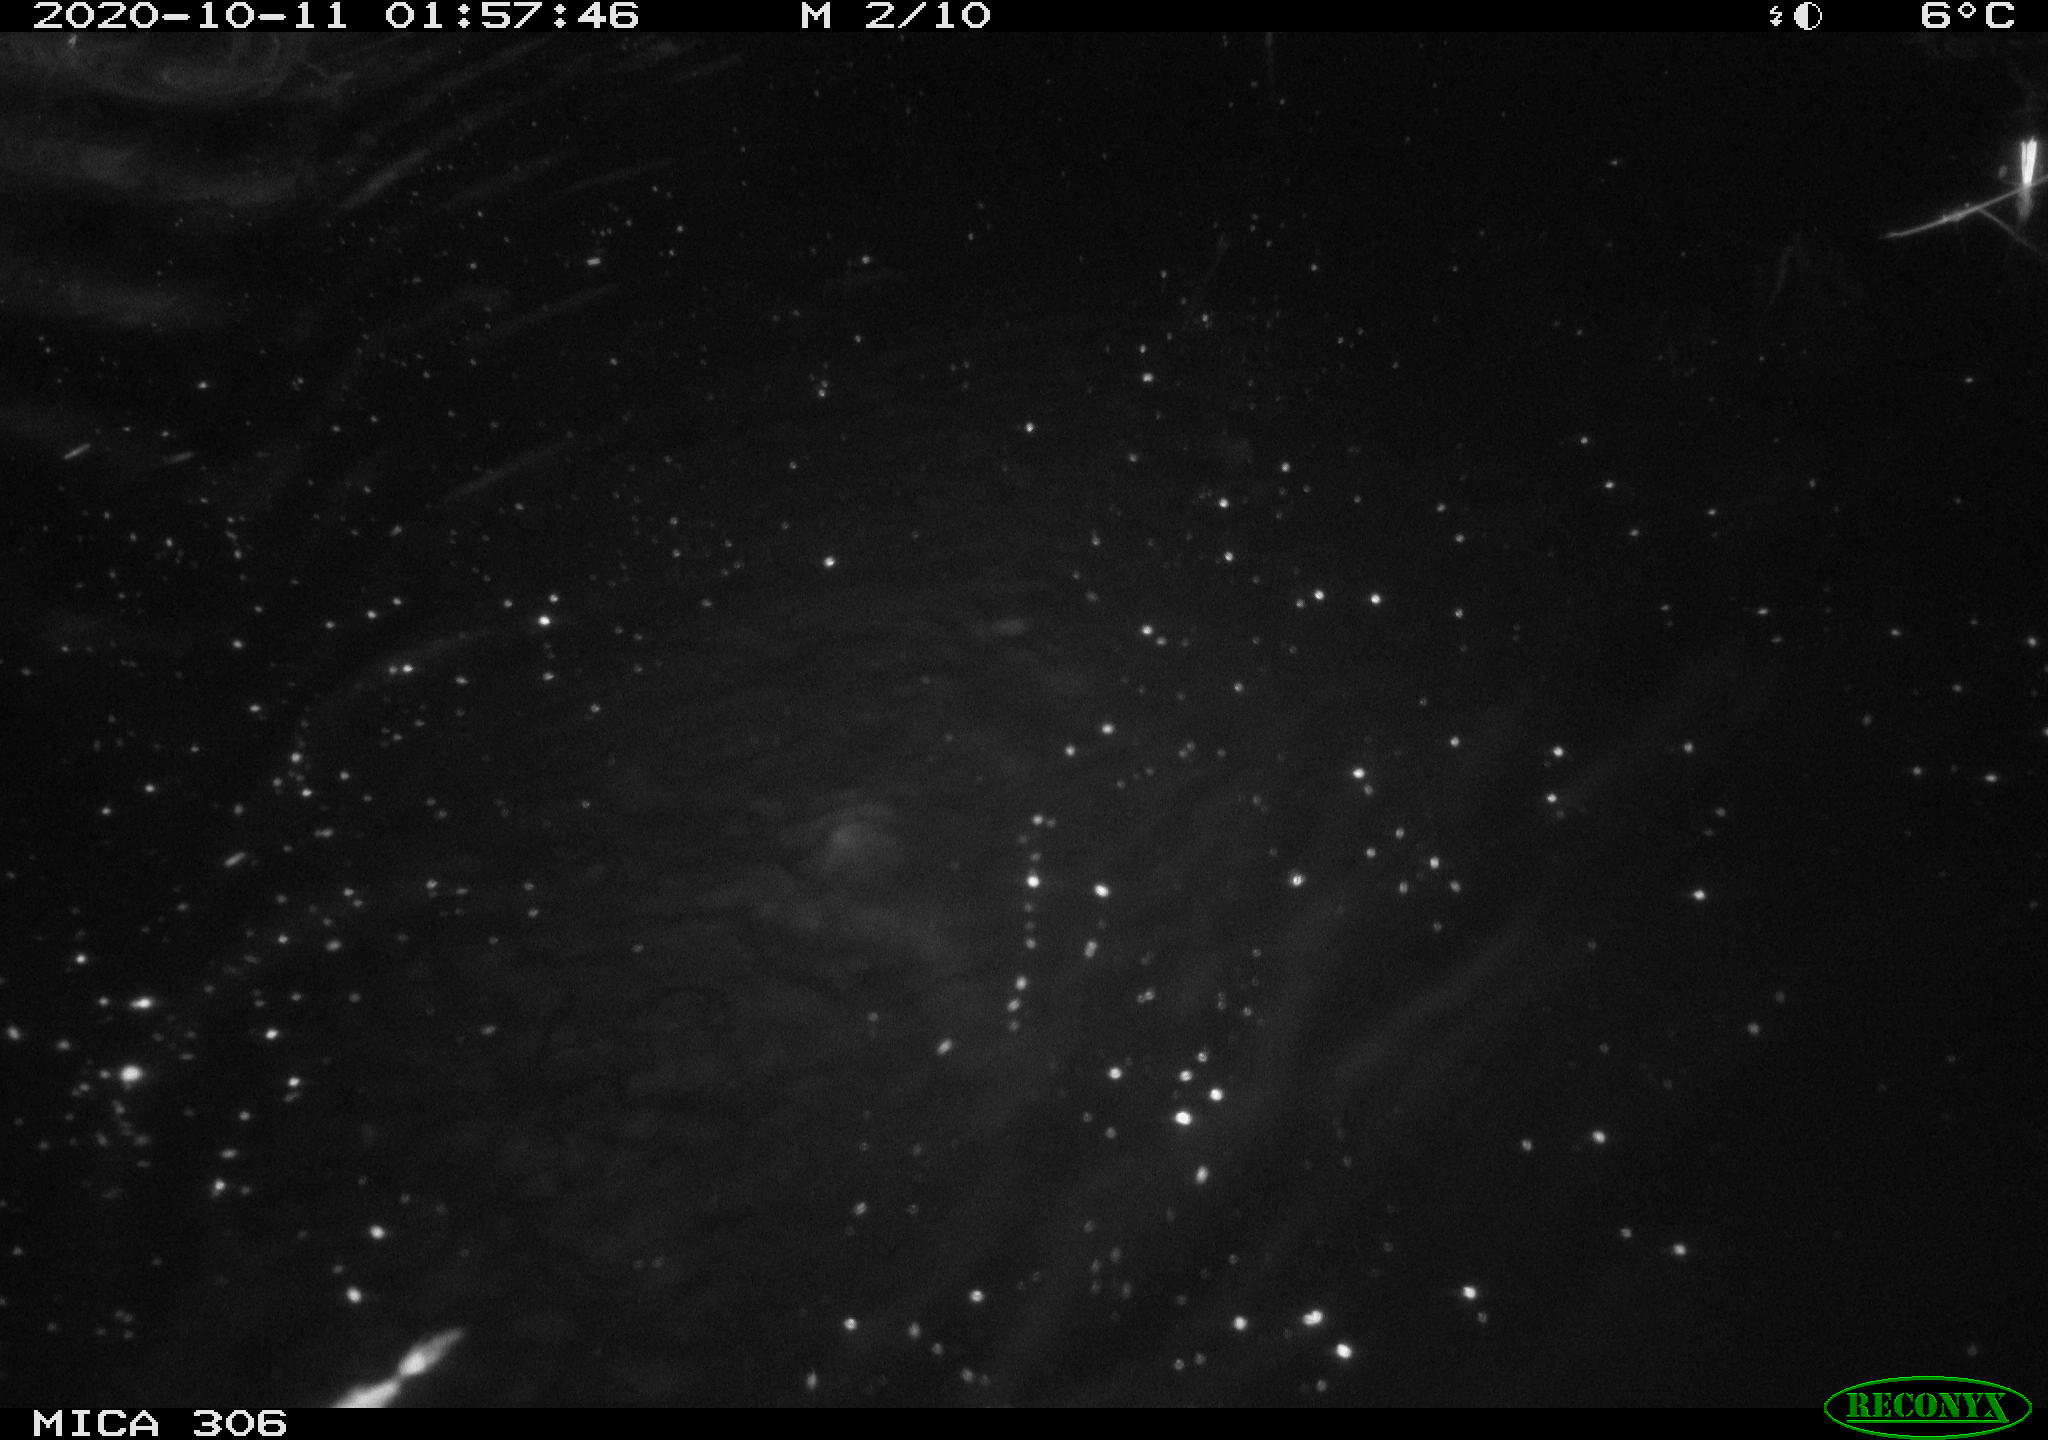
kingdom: Animalia
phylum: Chordata
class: Mammalia
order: Rodentia
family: Cricetidae
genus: Ondatra
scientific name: Ondatra zibethicus
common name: Muskrat
